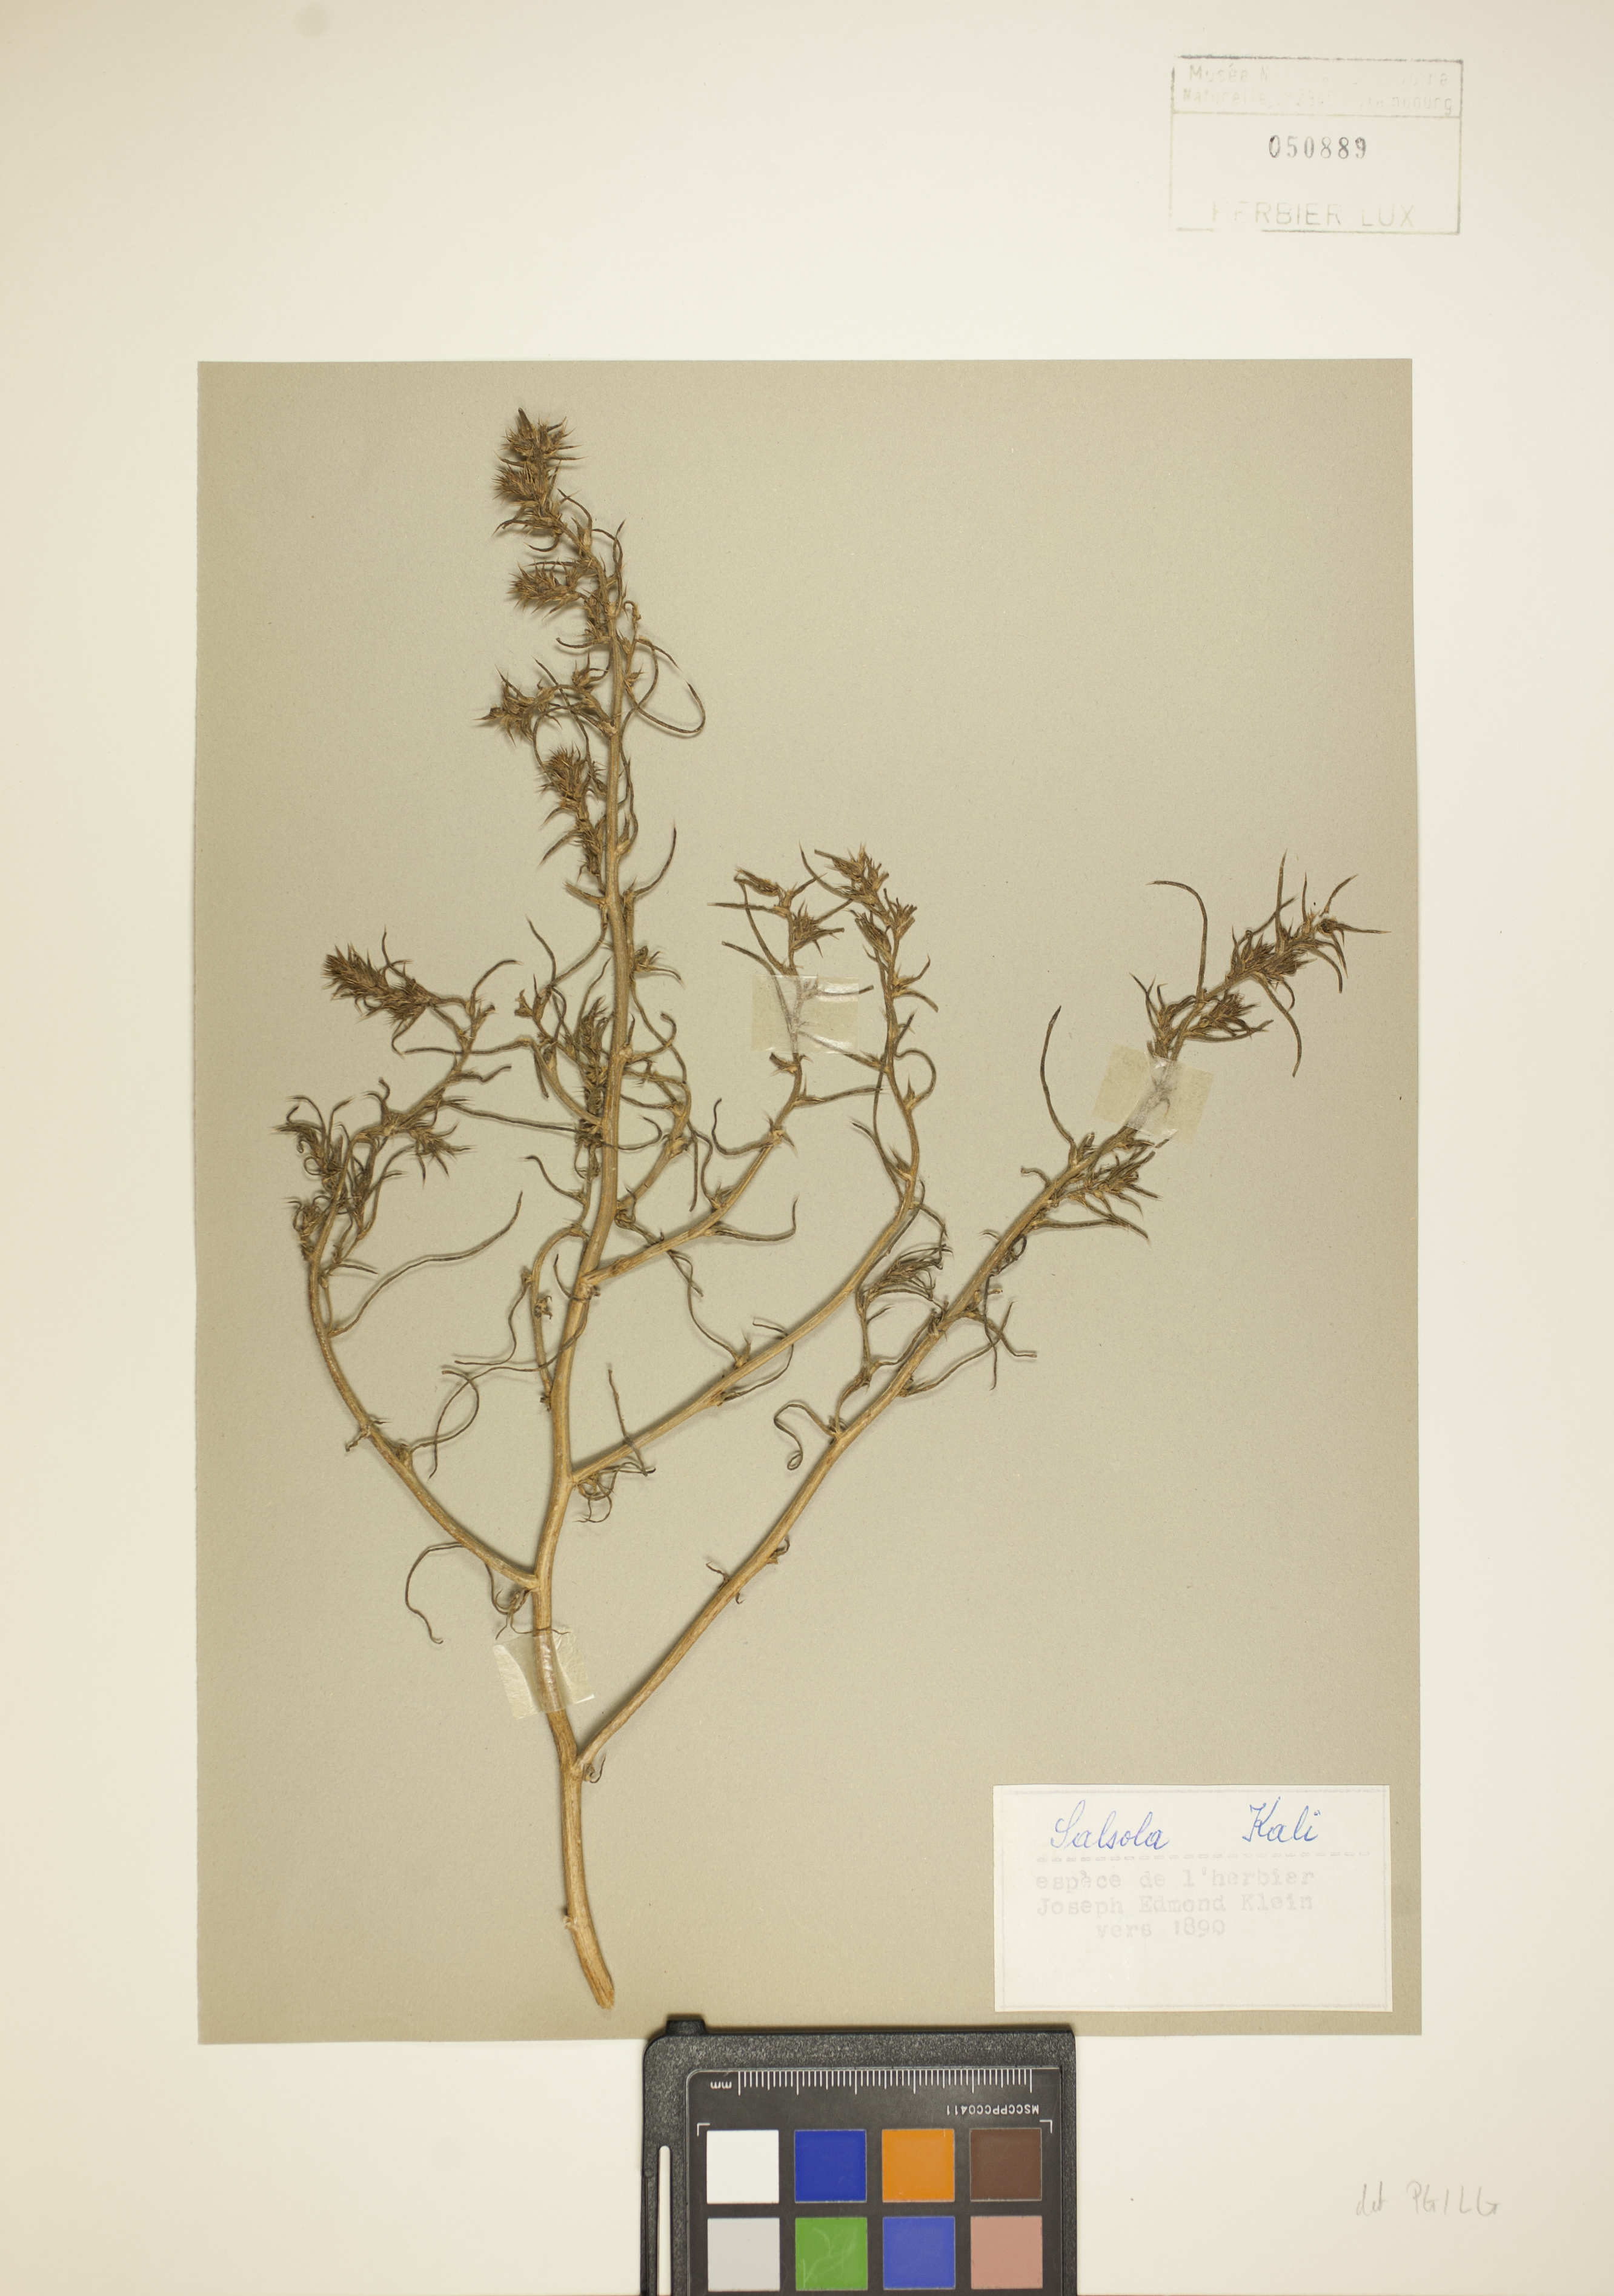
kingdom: Plantae
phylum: Tracheophyta
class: Magnoliopsida
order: Caryophyllales
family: Amaranthaceae
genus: Salsola
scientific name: Salsola kali
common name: Saltwort
